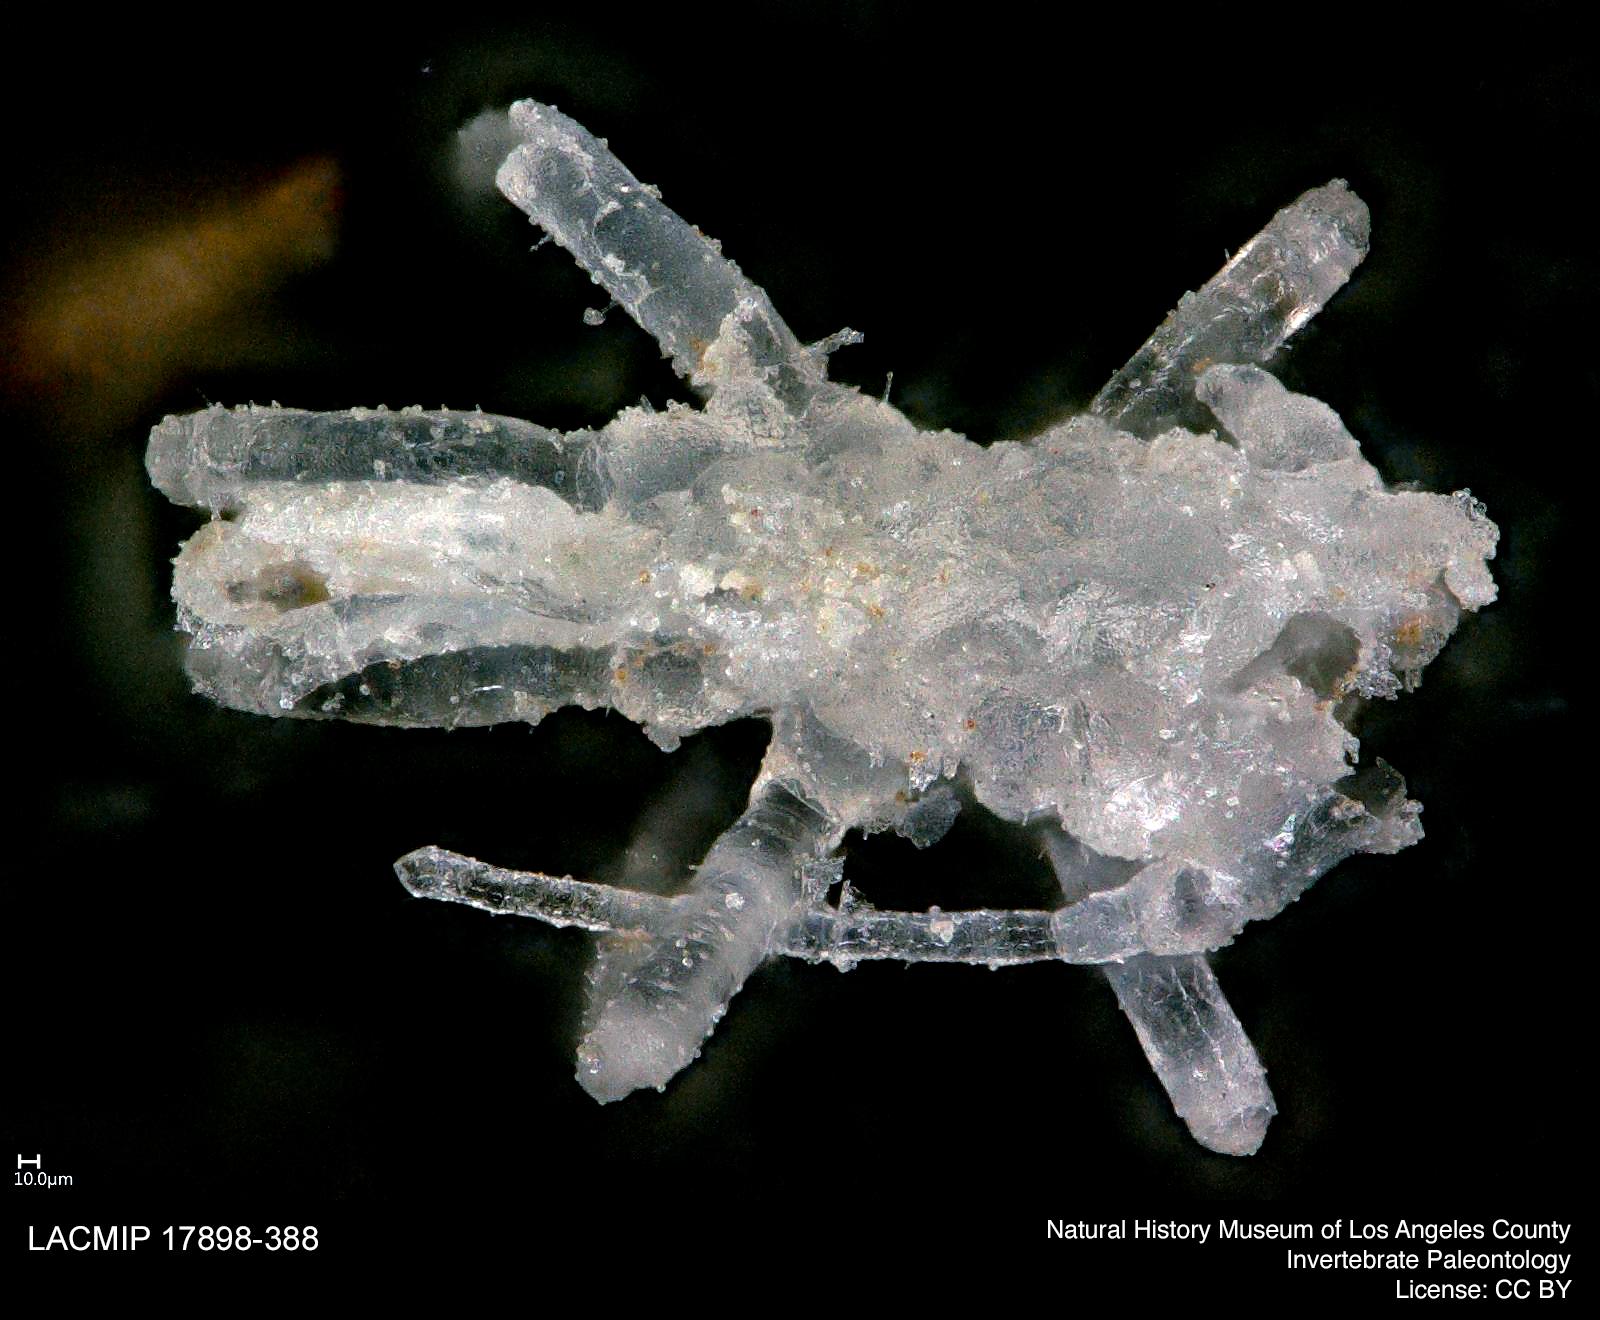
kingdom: Animalia
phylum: Arthropoda
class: Insecta
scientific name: Insecta
